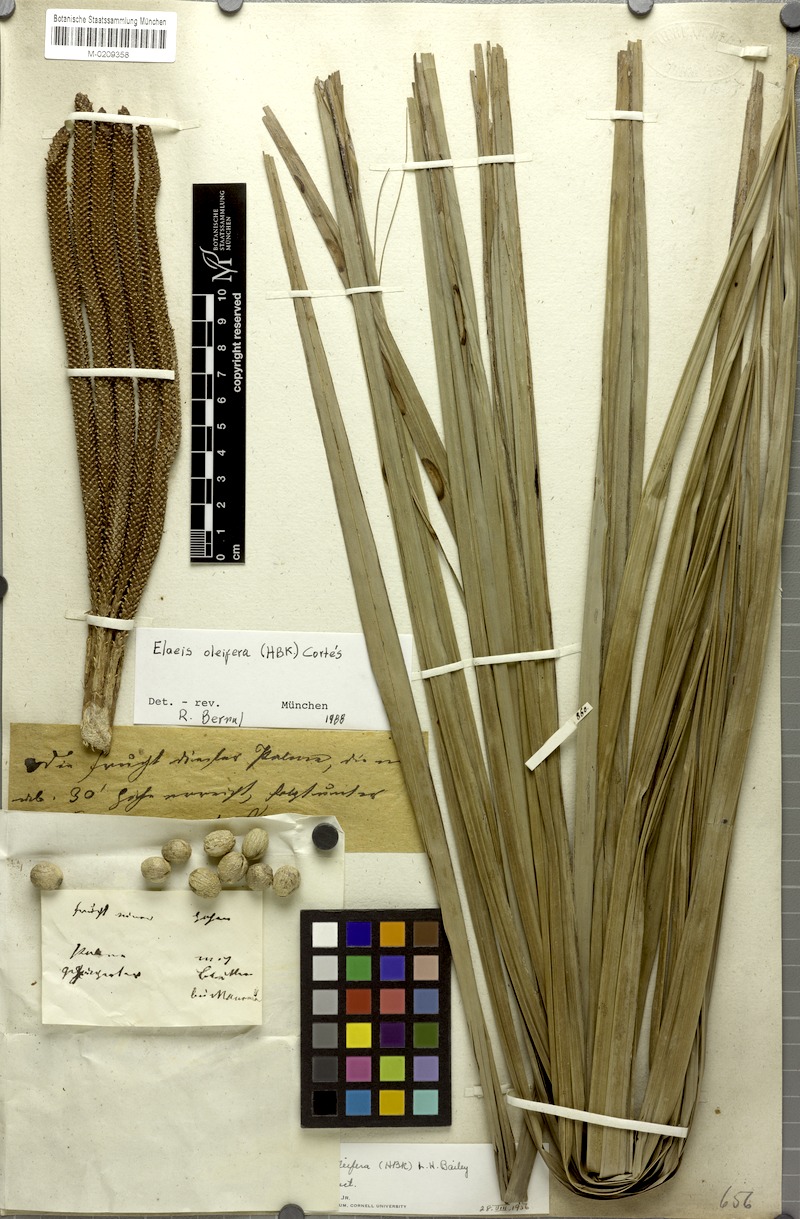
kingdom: Plantae
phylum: Tracheophyta
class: Liliopsida
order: Arecales
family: Arecaceae
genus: Elaeis
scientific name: Elaeis oleifera
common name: American oil palm
